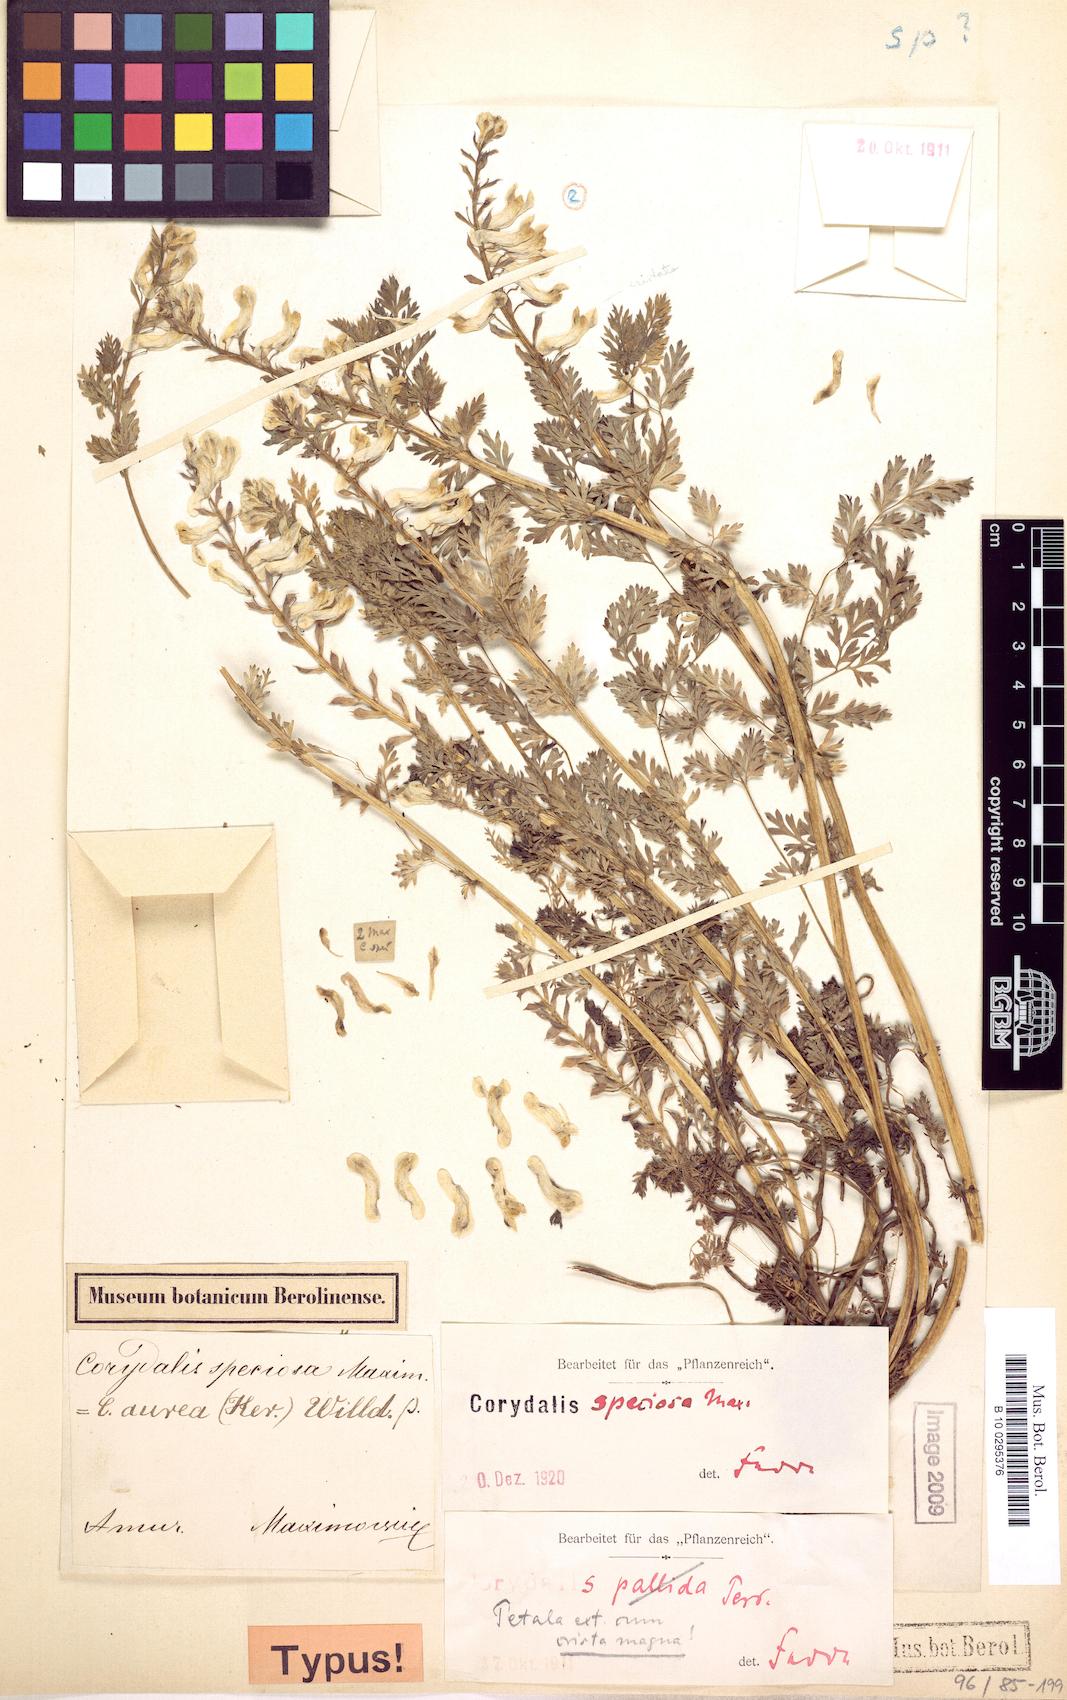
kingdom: Plantae
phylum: Tracheophyta
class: Magnoliopsida
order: Ranunculales
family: Papaveraceae
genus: Corydalis
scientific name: Corydalis speciosa
